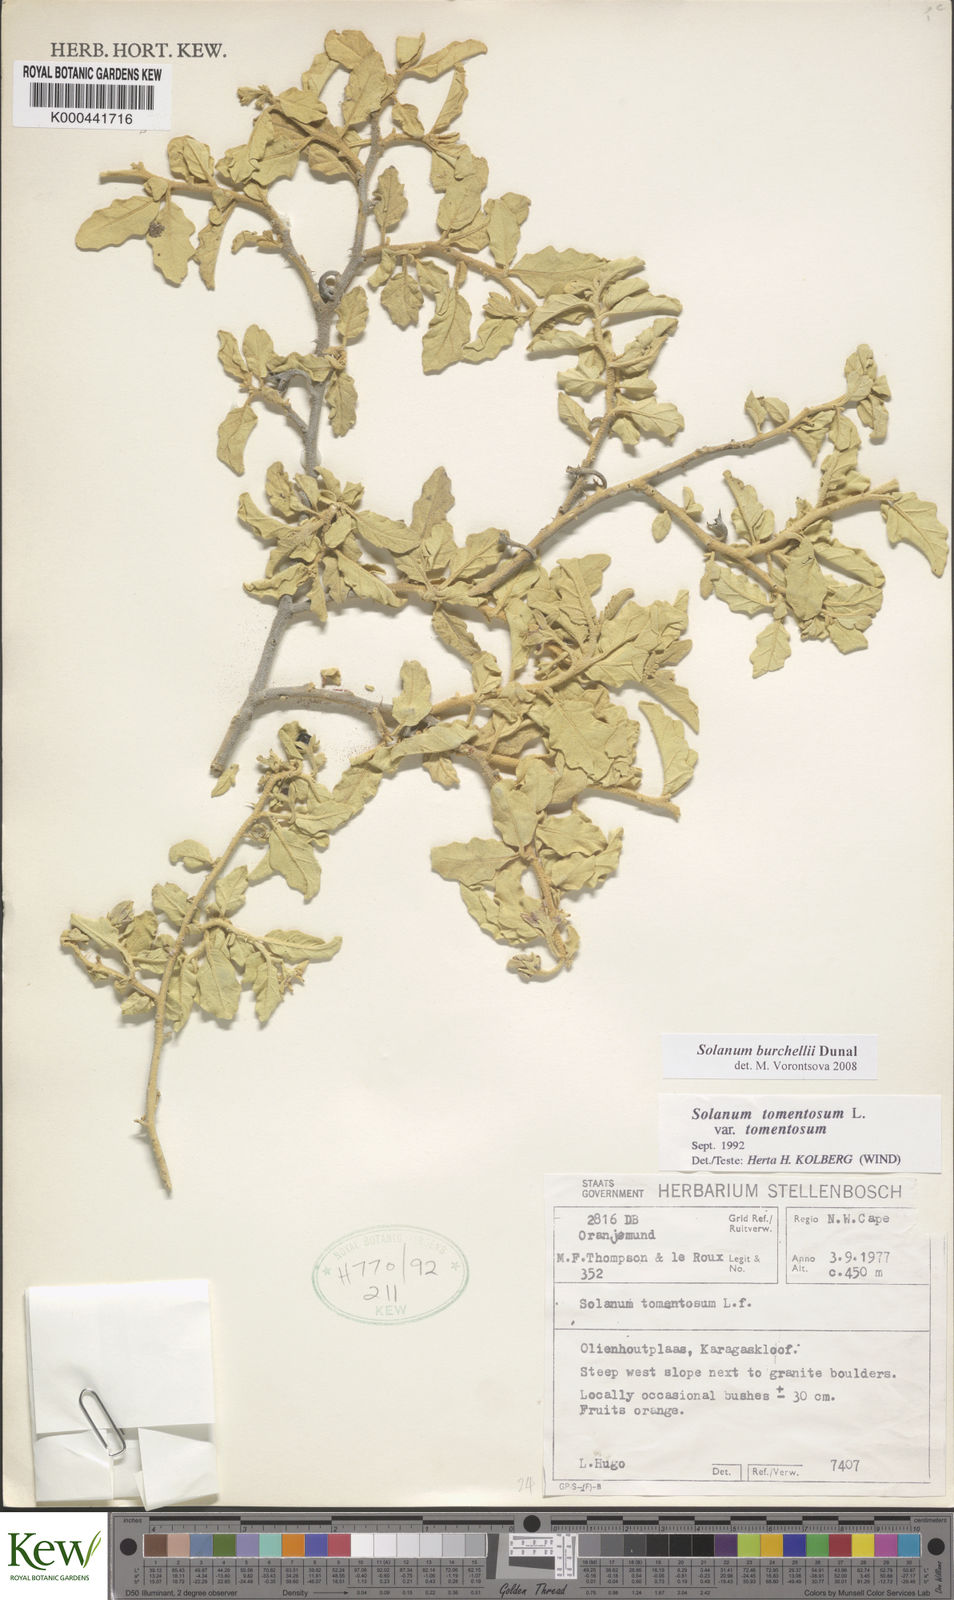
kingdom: Plantae
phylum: Tracheophyta
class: Magnoliopsida
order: Solanales
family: Solanaceae
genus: Solanum
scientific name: Solanum burchellii
